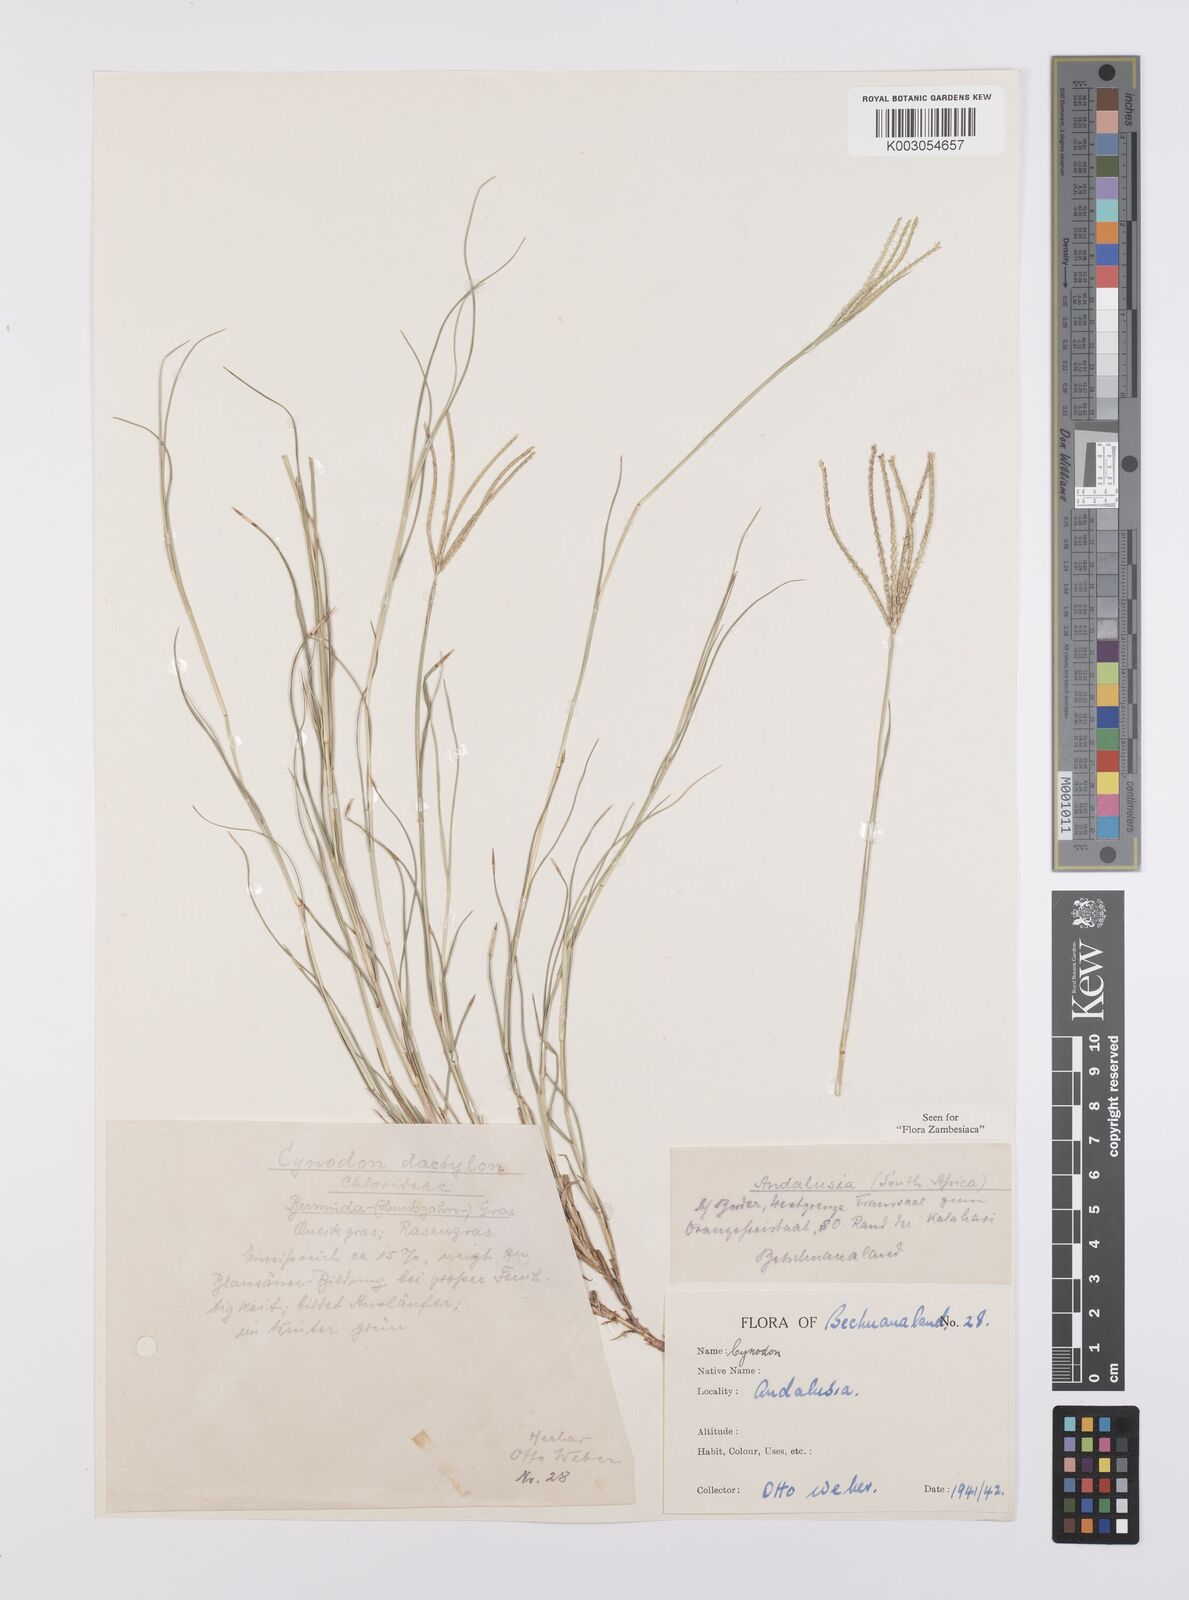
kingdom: Plantae
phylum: Tracheophyta
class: Liliopsida
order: Poales
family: Poaceae
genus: Cynodon
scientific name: Cynodon dactylon
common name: Bermuda grass
